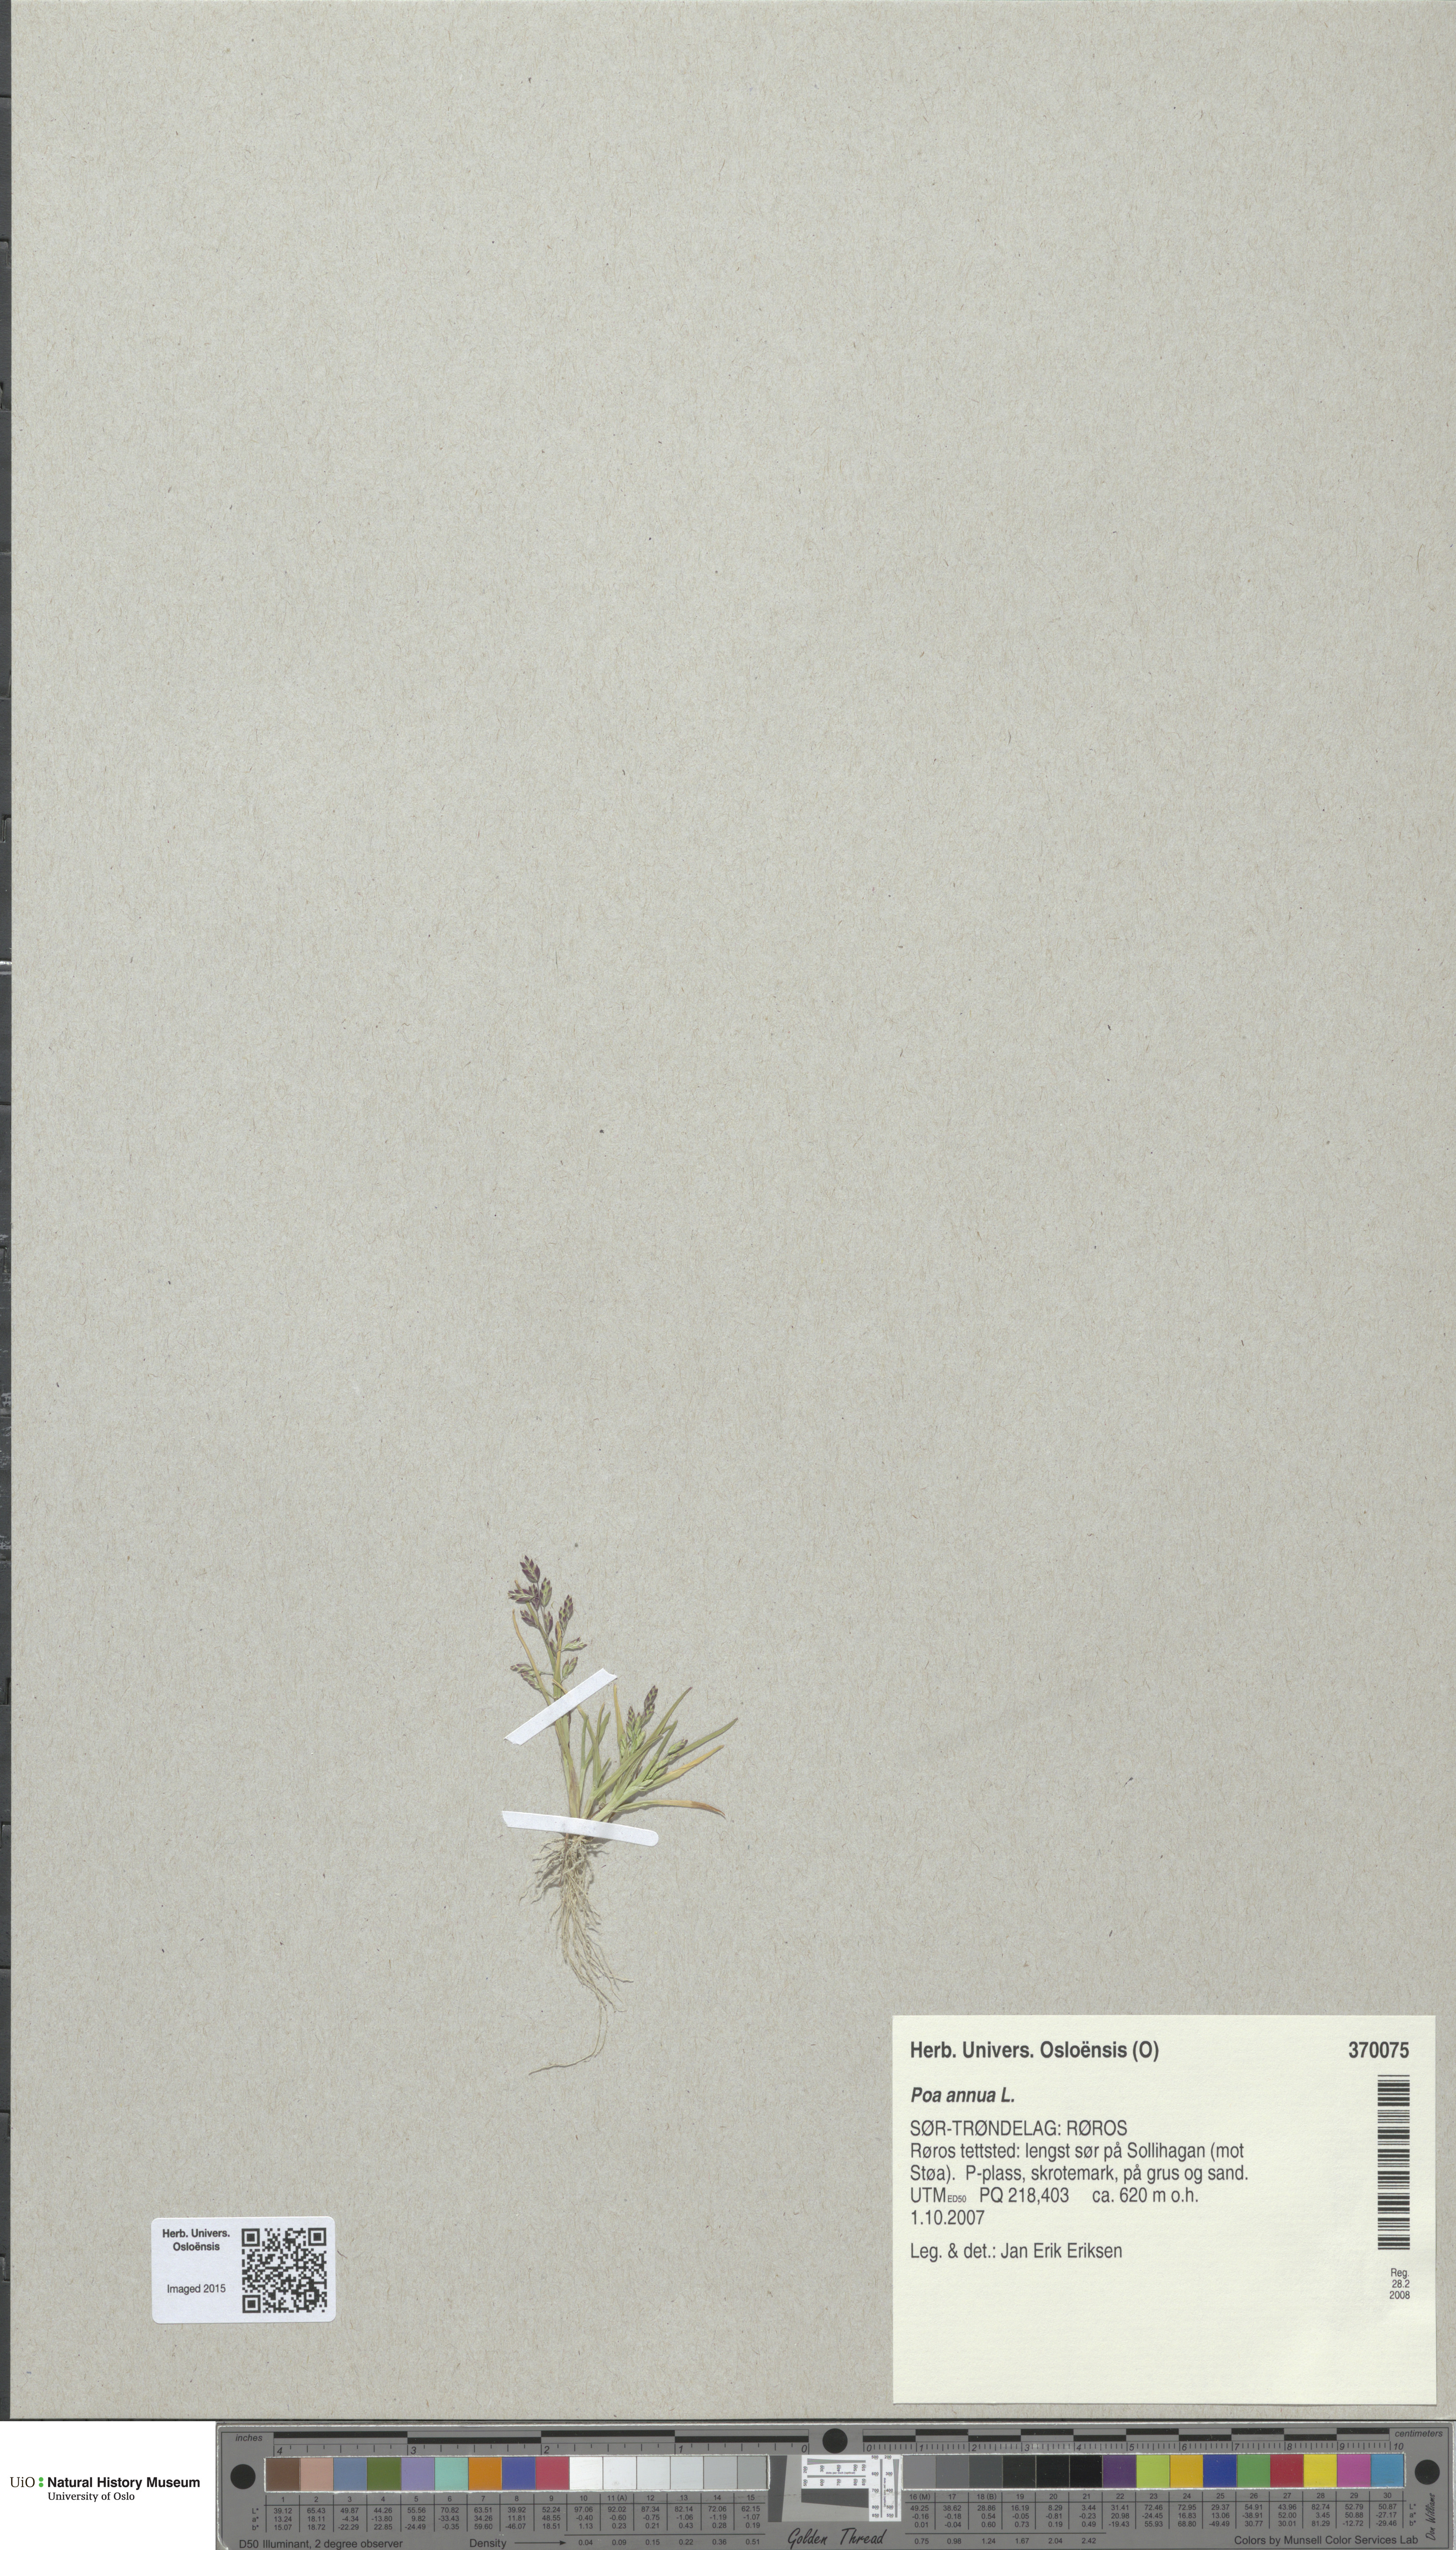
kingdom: Plantae
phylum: Tracheophyta
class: Liliopsida
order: Poales
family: Poaceae
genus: Poa
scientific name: Poa annua
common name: Annual bluegrass
